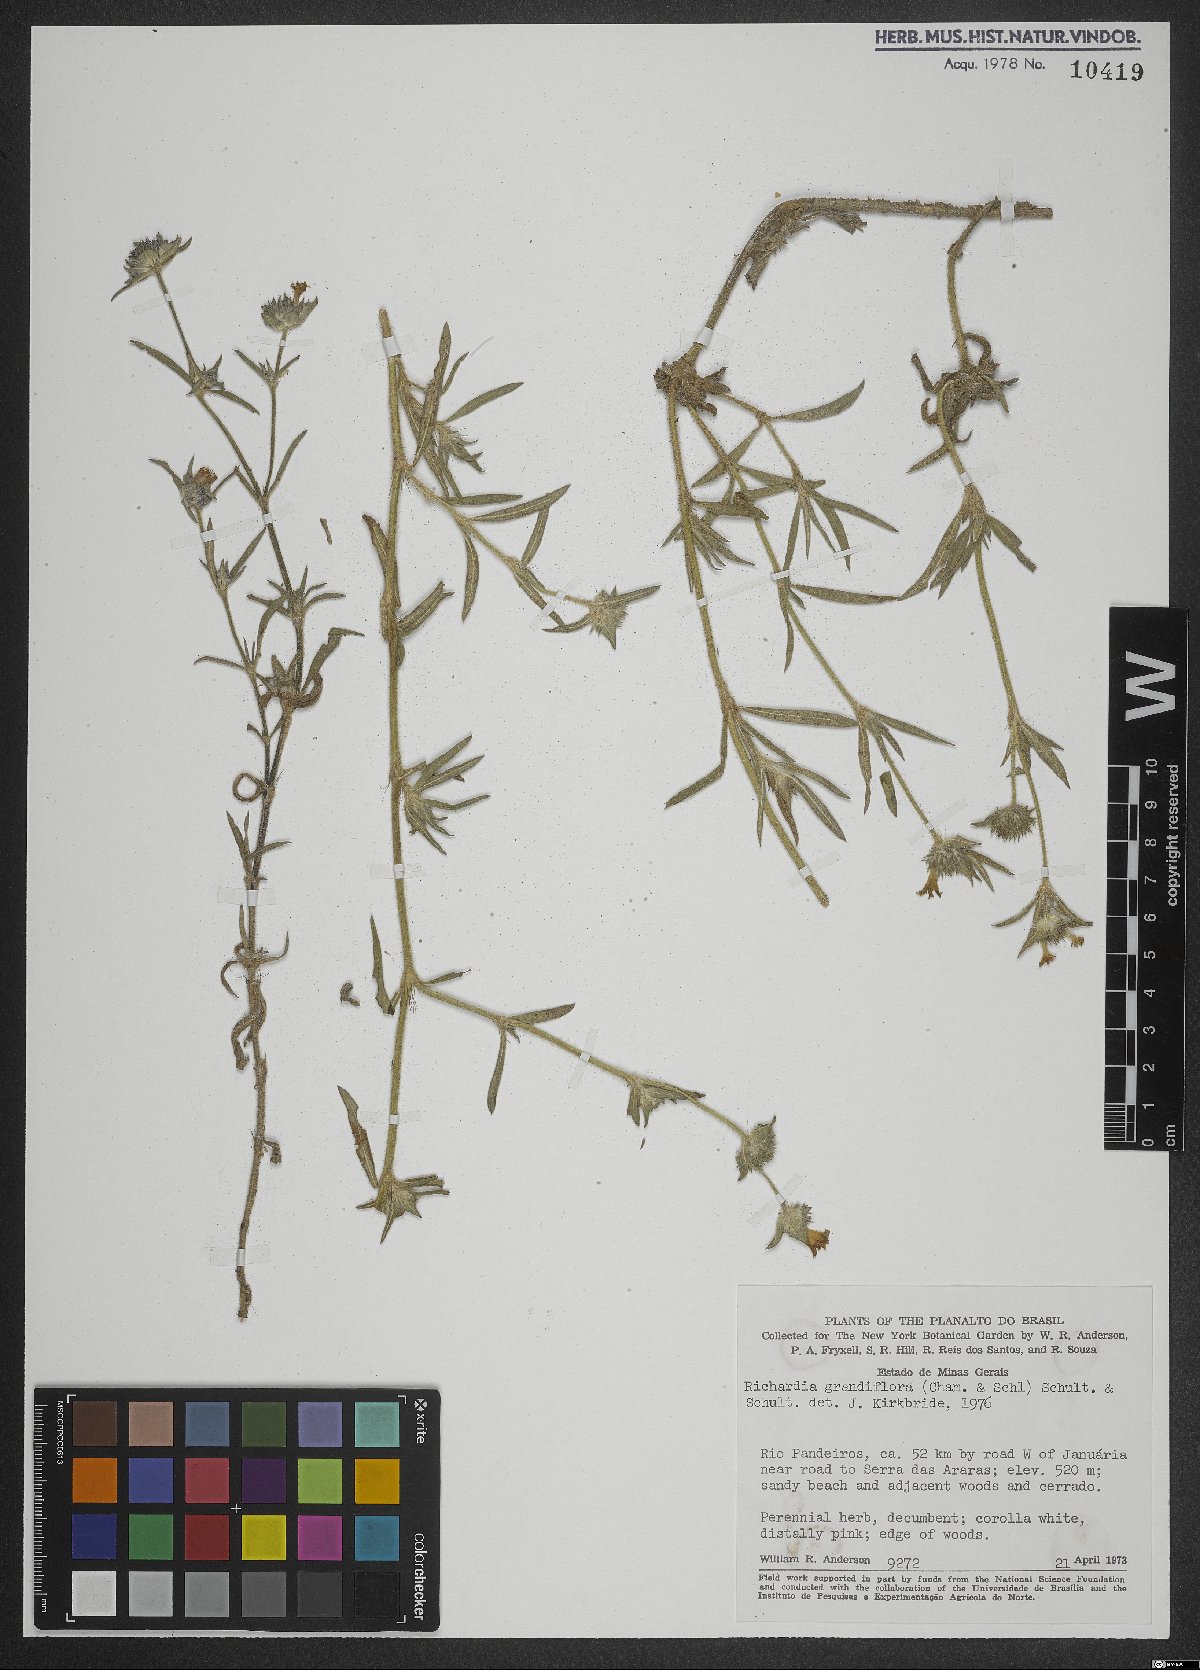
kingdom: Plantae
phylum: Tracheophyta
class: Magnoliopsida
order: Gentianales
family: Rubiaceae
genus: Richardia
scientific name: Richardia grandiflora
